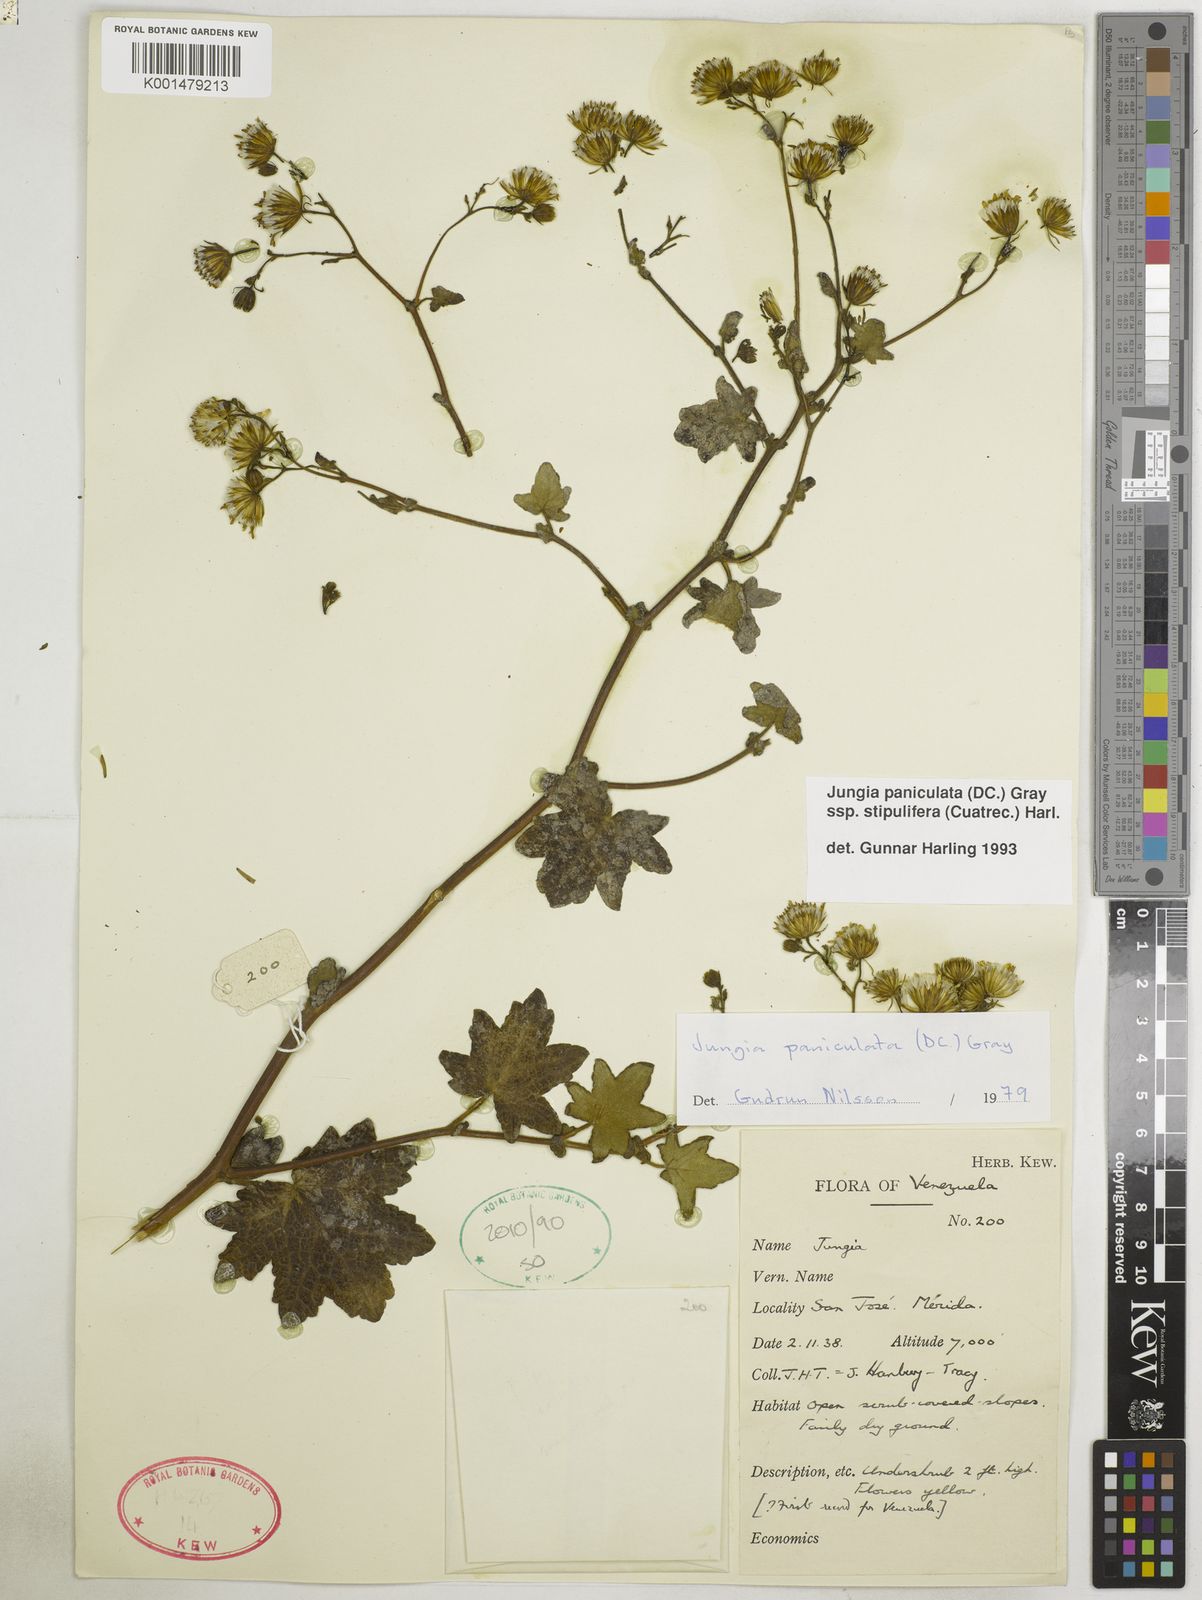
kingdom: Plantae
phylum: Tracheophyta
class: Magnoliopsida
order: Asterales
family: Asteraceae
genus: Jungia
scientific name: Jungia paniculata
